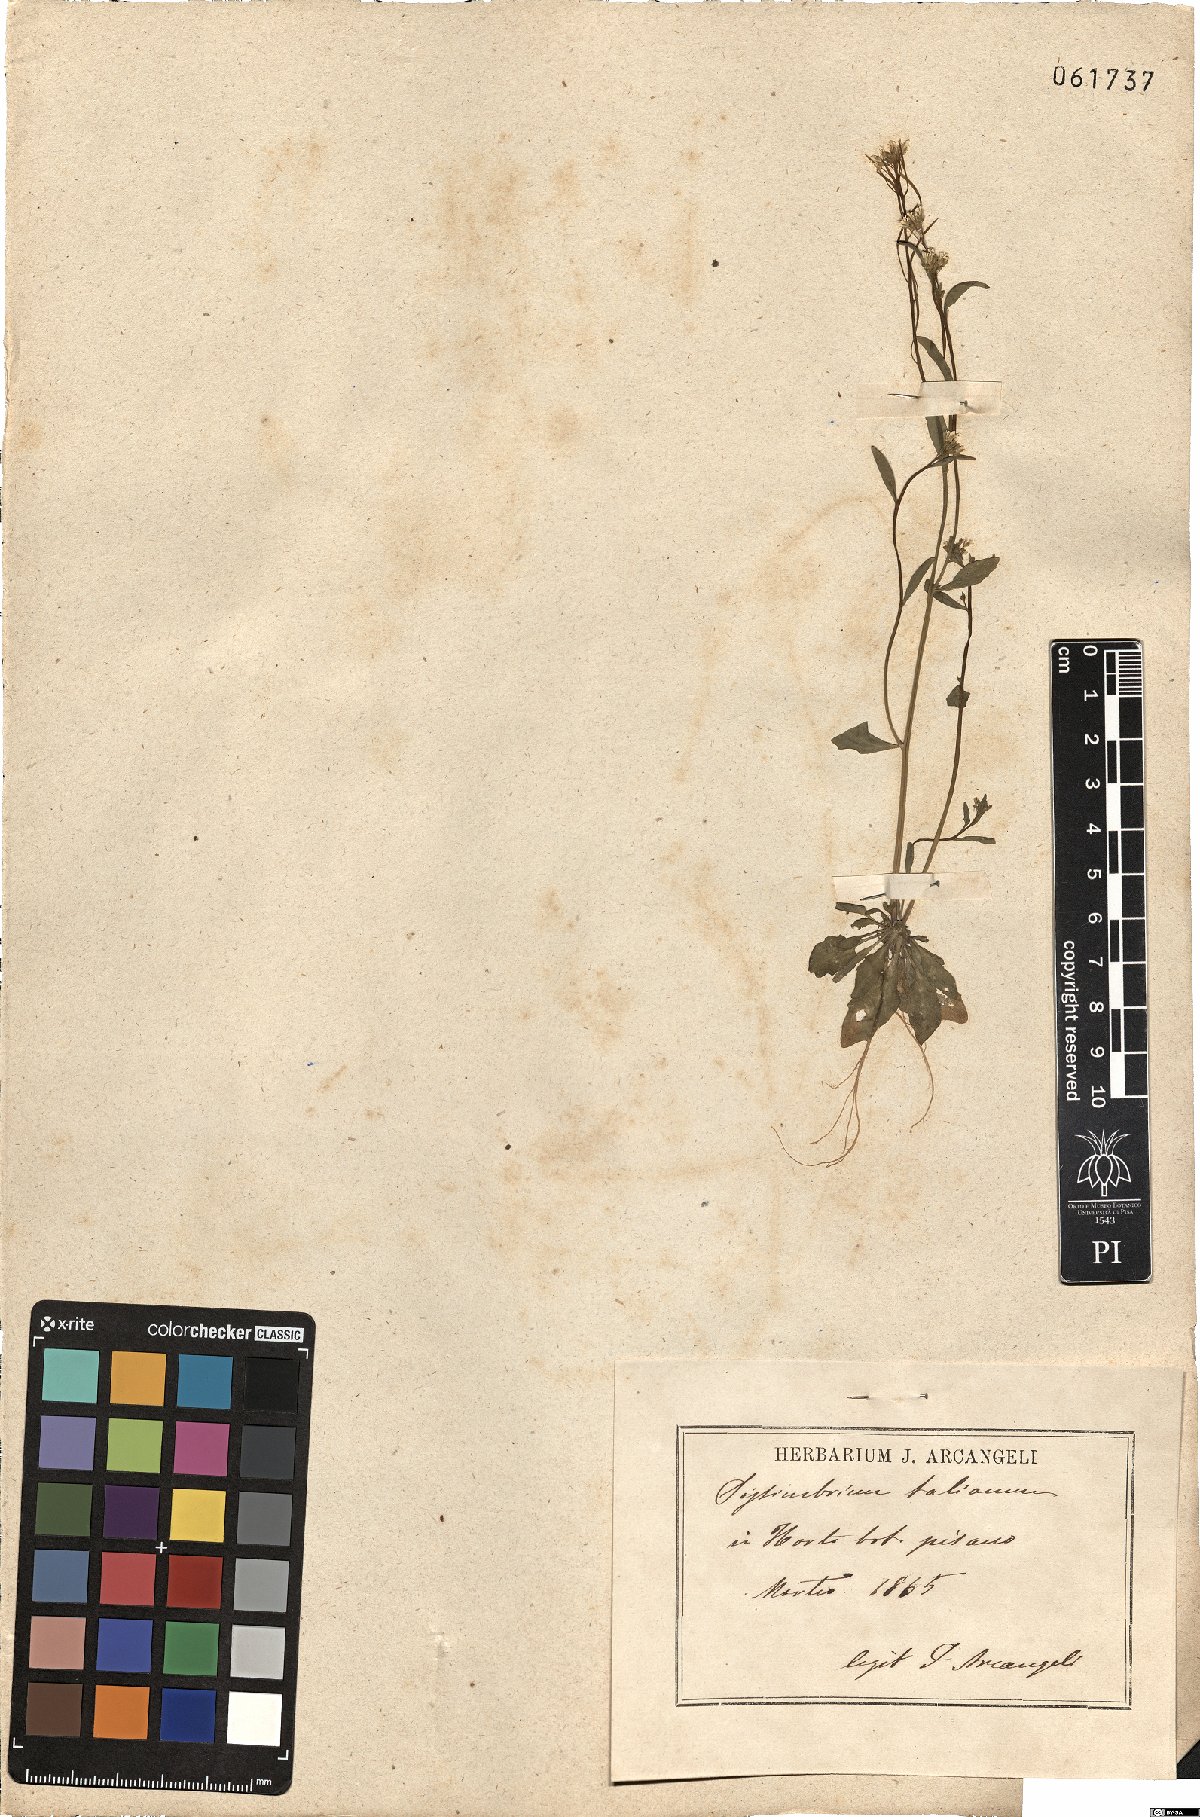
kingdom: Plantae
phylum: Tracheophyta
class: Magnoliopsida
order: Brassicales
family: Brassicaceae
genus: Arabidopsis
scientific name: Arabidopsis thaliana
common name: Thale cress
